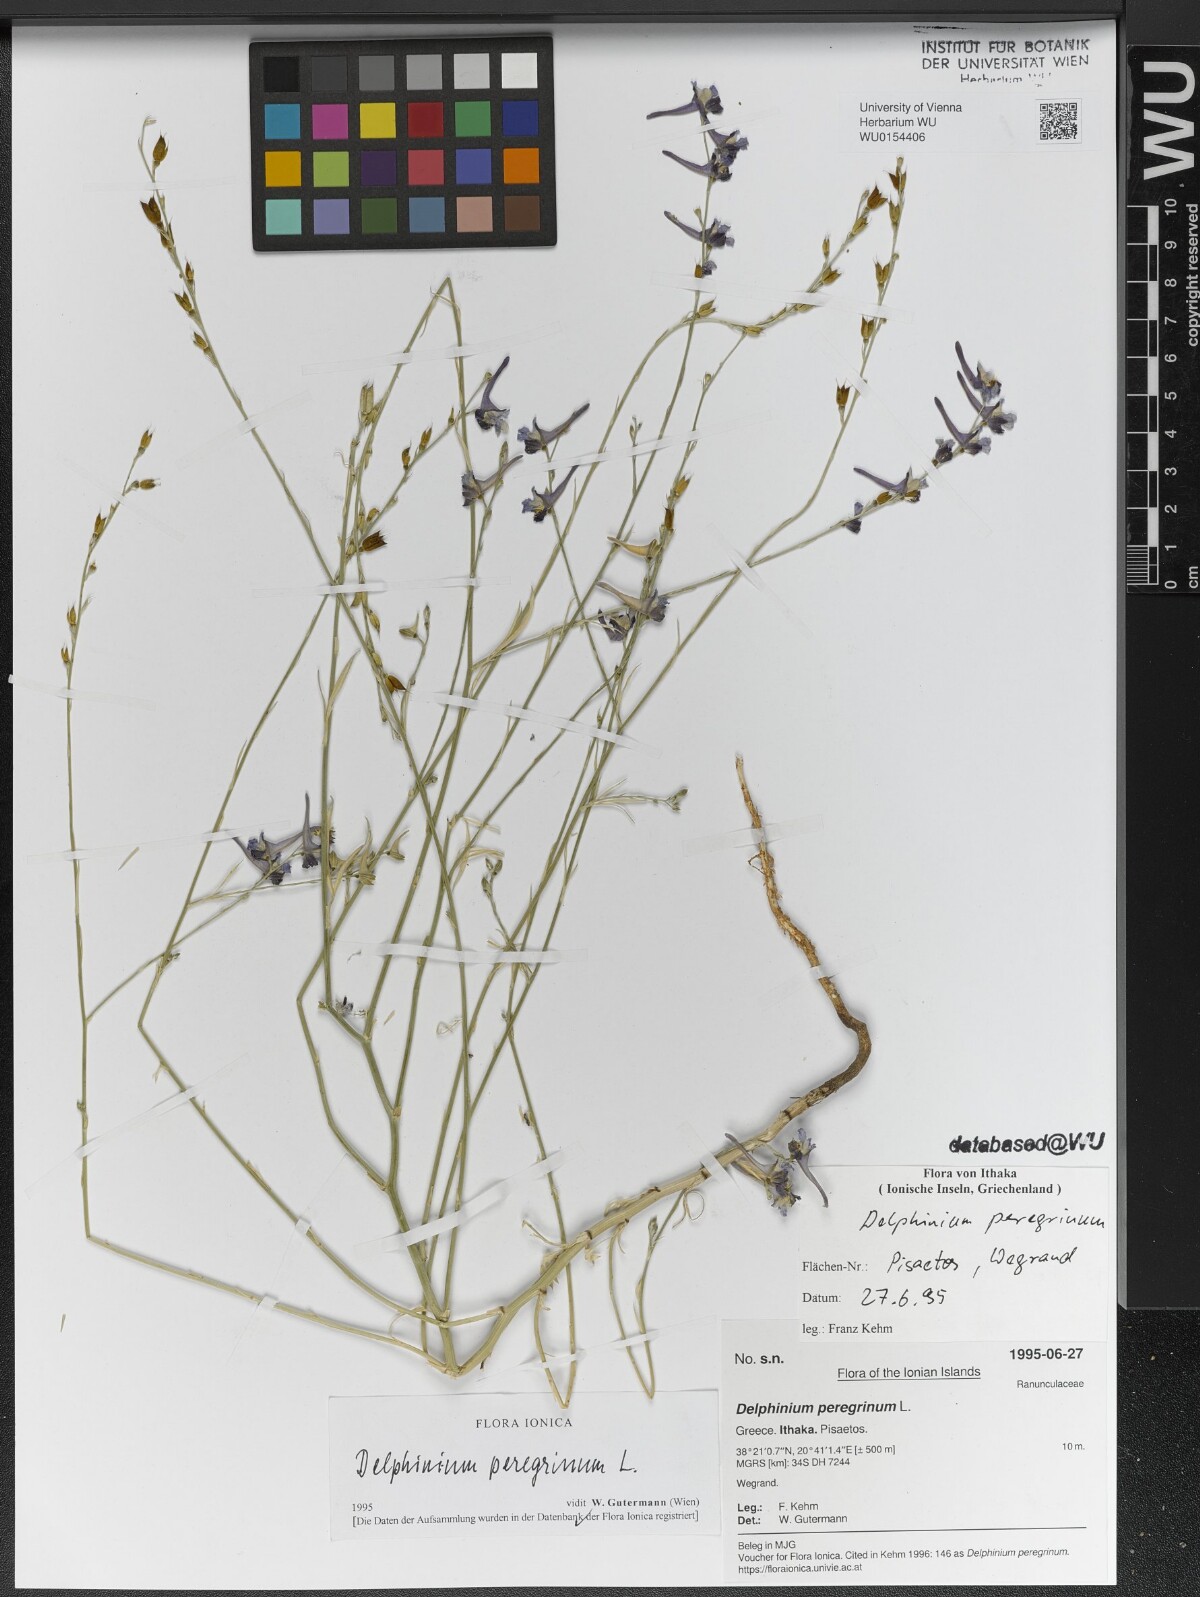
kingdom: Plantae
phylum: Tracheophyta
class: Magnoliopsida
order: Ranunculales
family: Ranunculaceae
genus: Delphinium
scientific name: Delphinium peregrinum
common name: Violet larkspur
